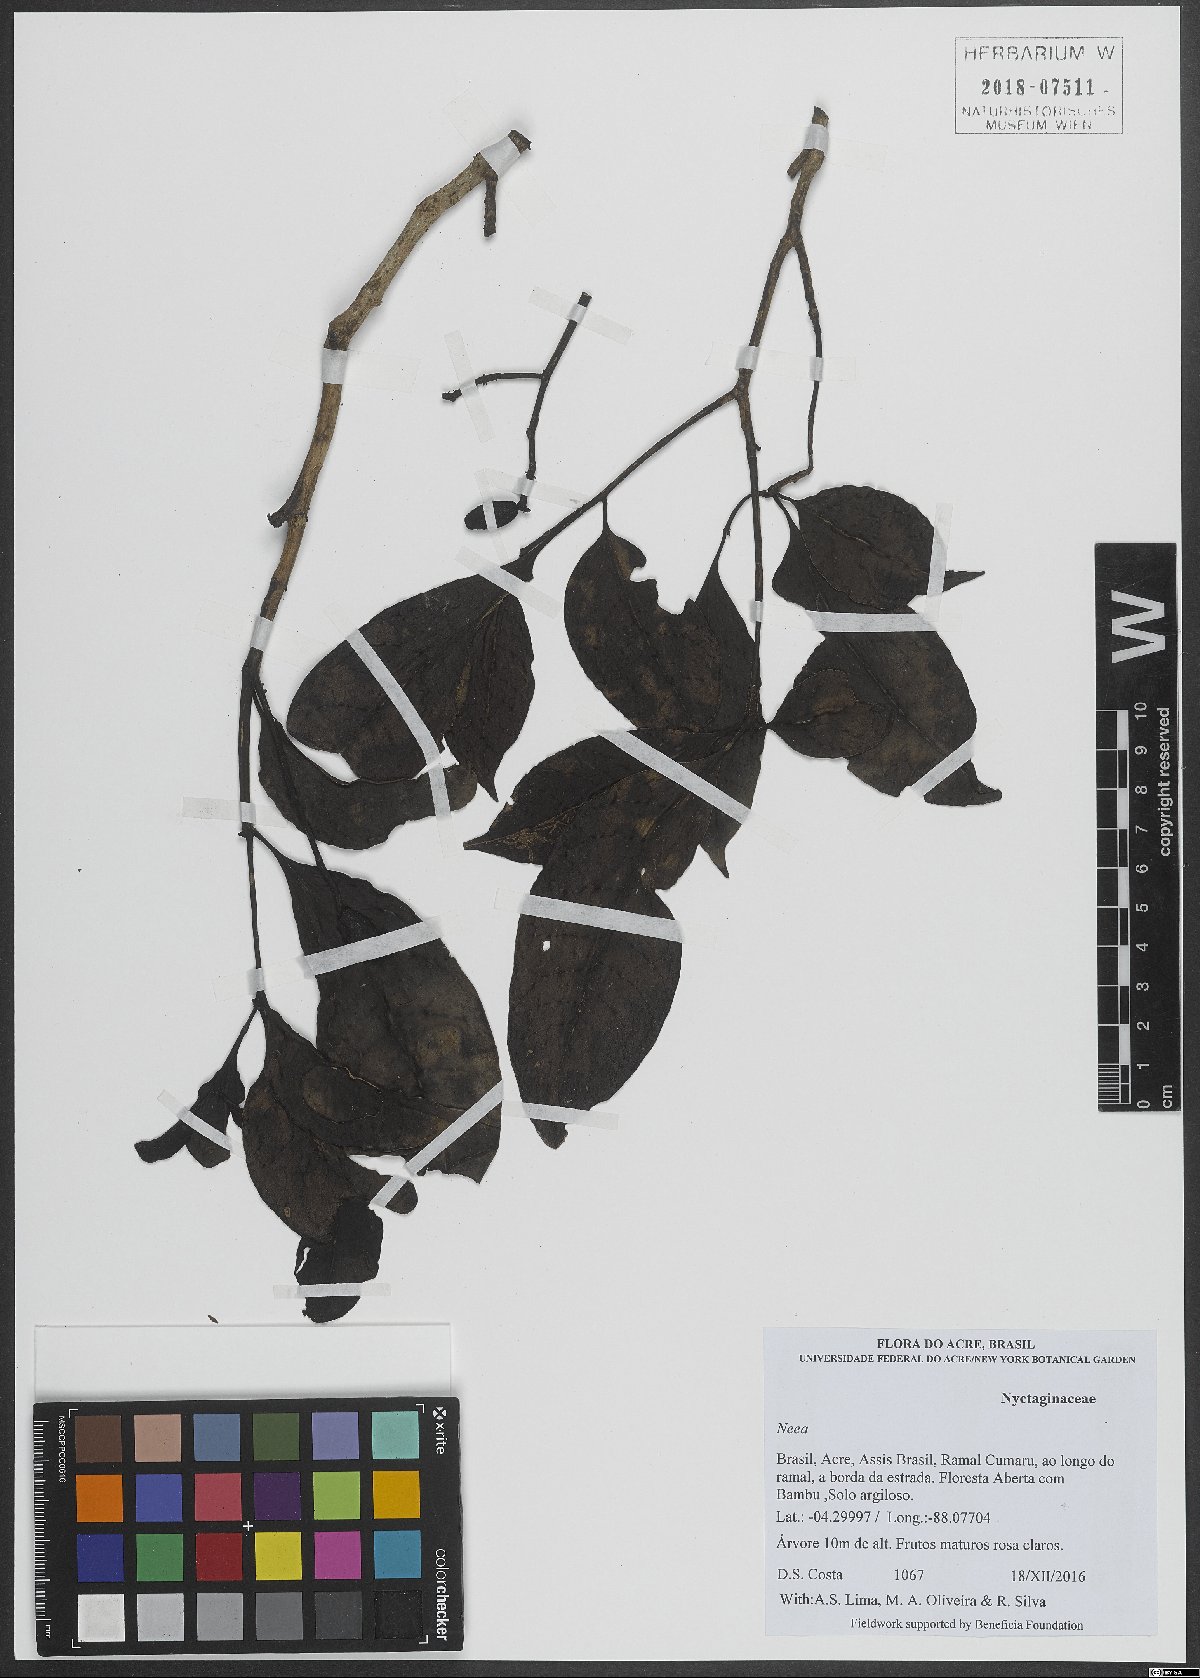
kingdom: Plantae
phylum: Tracheophyta
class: Magnoliopsida
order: Caryophyllales
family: Nyctaginaceae
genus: Neea
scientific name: Neea
